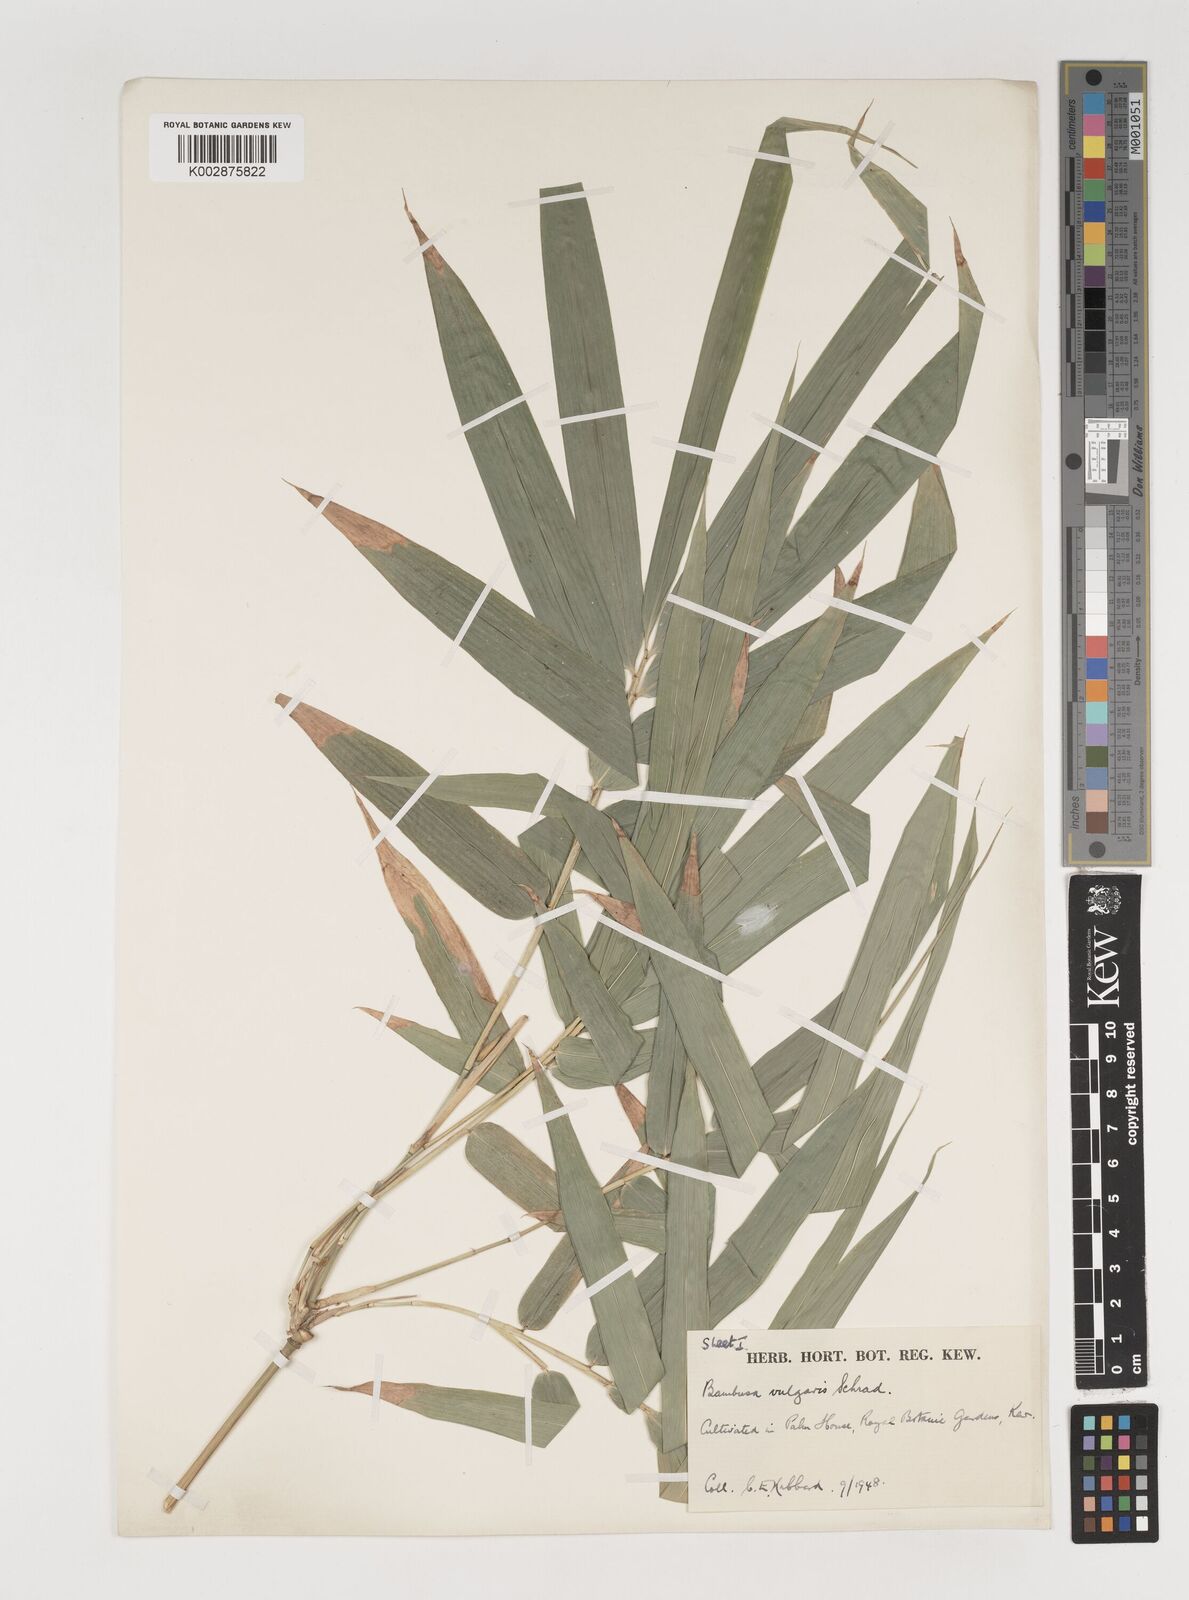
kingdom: Plantae
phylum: Tracheophyta
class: Liliopsida
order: Poales
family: Poaceae
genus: Bambusa
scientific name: Bambusa balcooa
